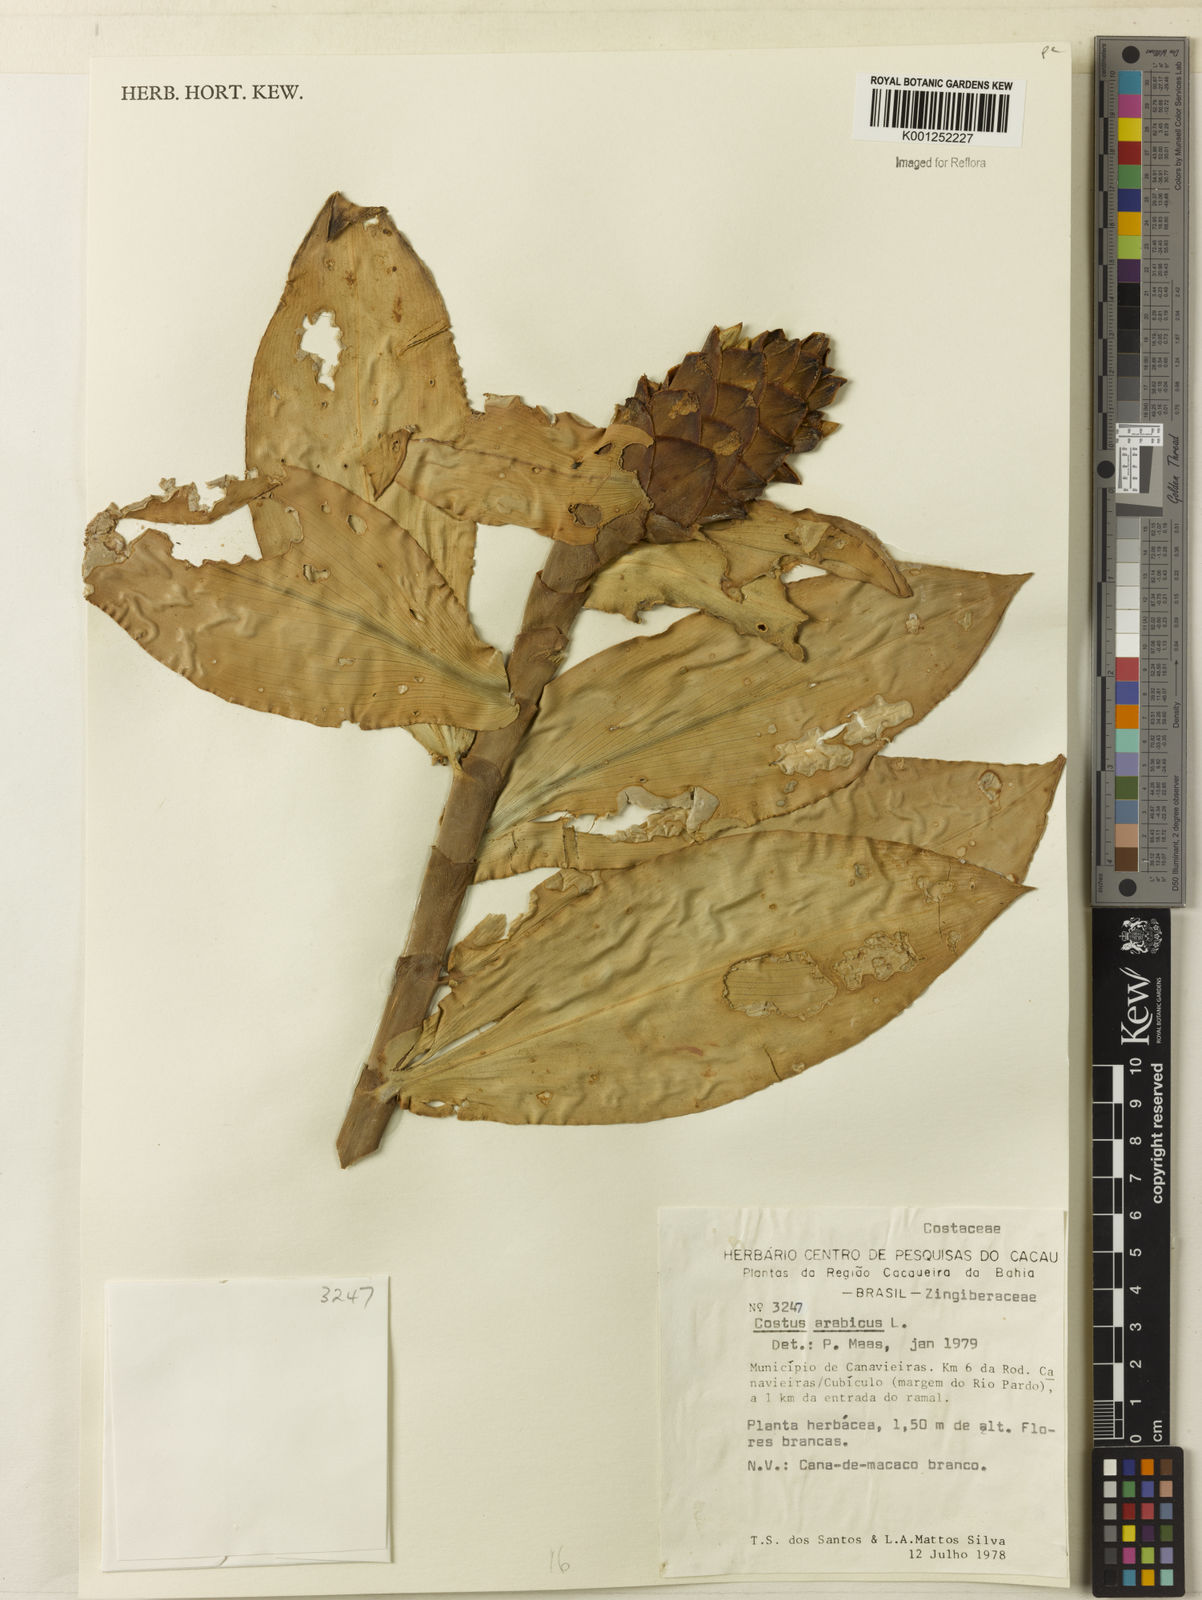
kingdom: Plantae
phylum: Tracheophyta
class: Liliopsida
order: Zingiberales
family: Costaceae
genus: Costus
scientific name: Costus arabicus
